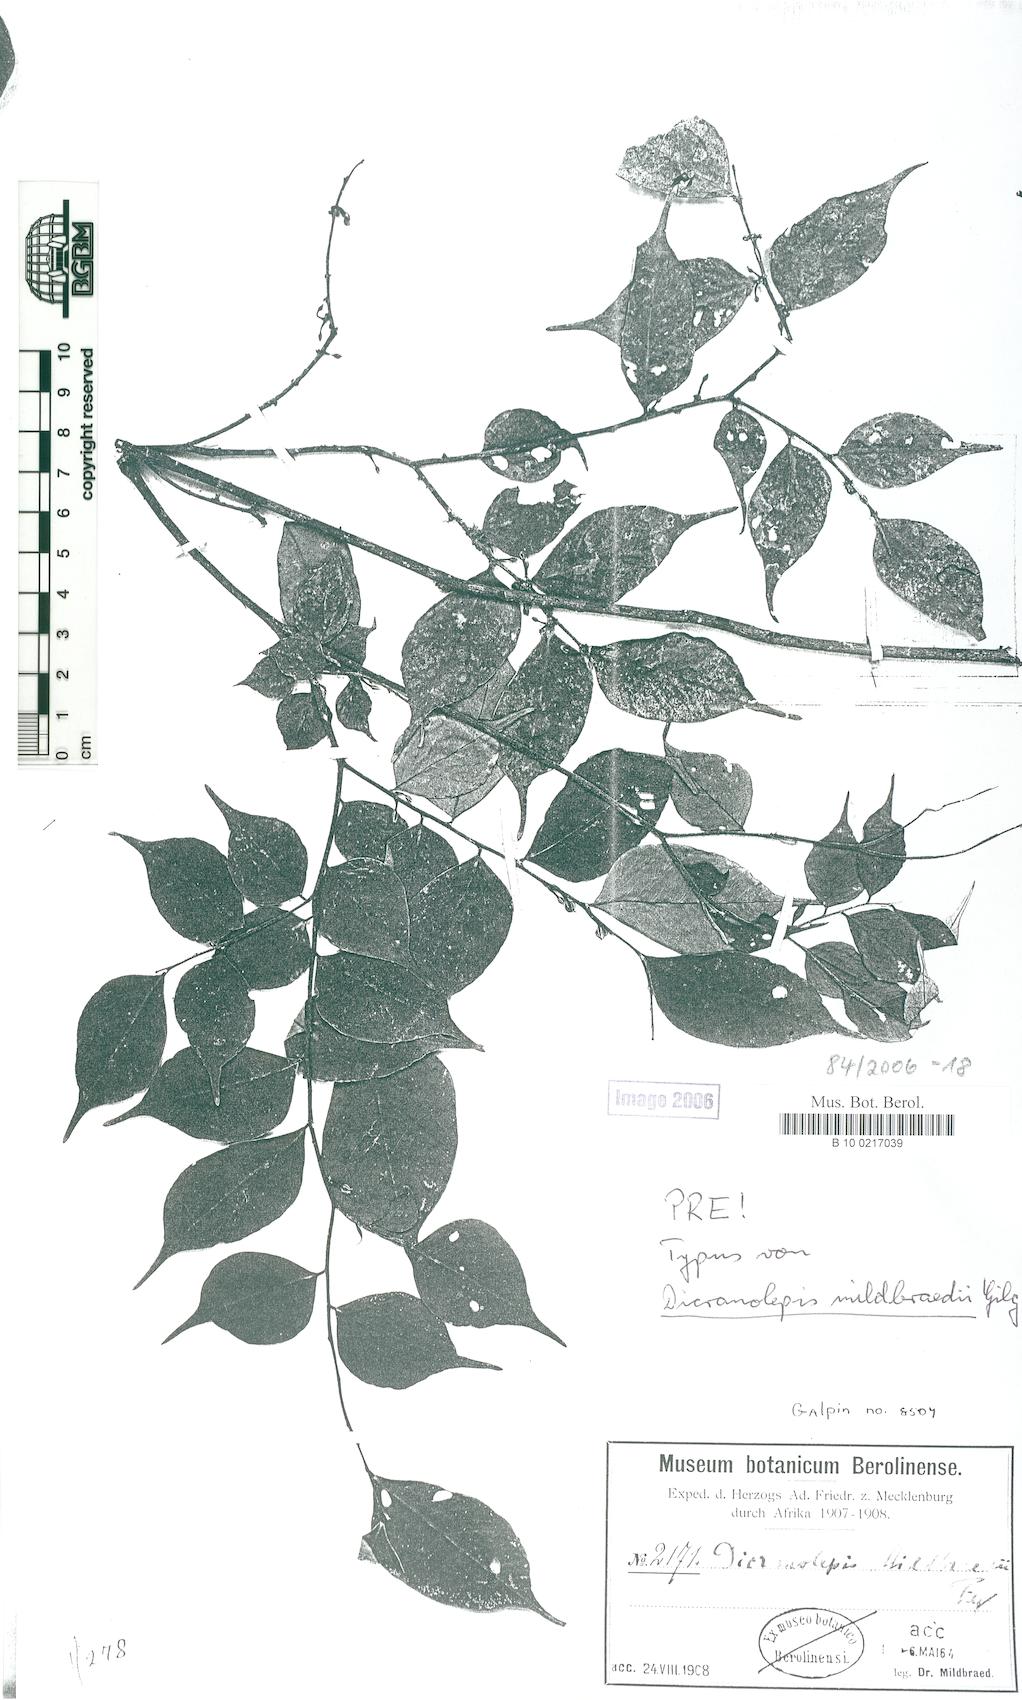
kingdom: Plantae
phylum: Tracheophyta
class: Magnoliopsida
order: Malvales
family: Thymelaeaceae
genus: Dicranolepis
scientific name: Dicranolepis buchholzii
